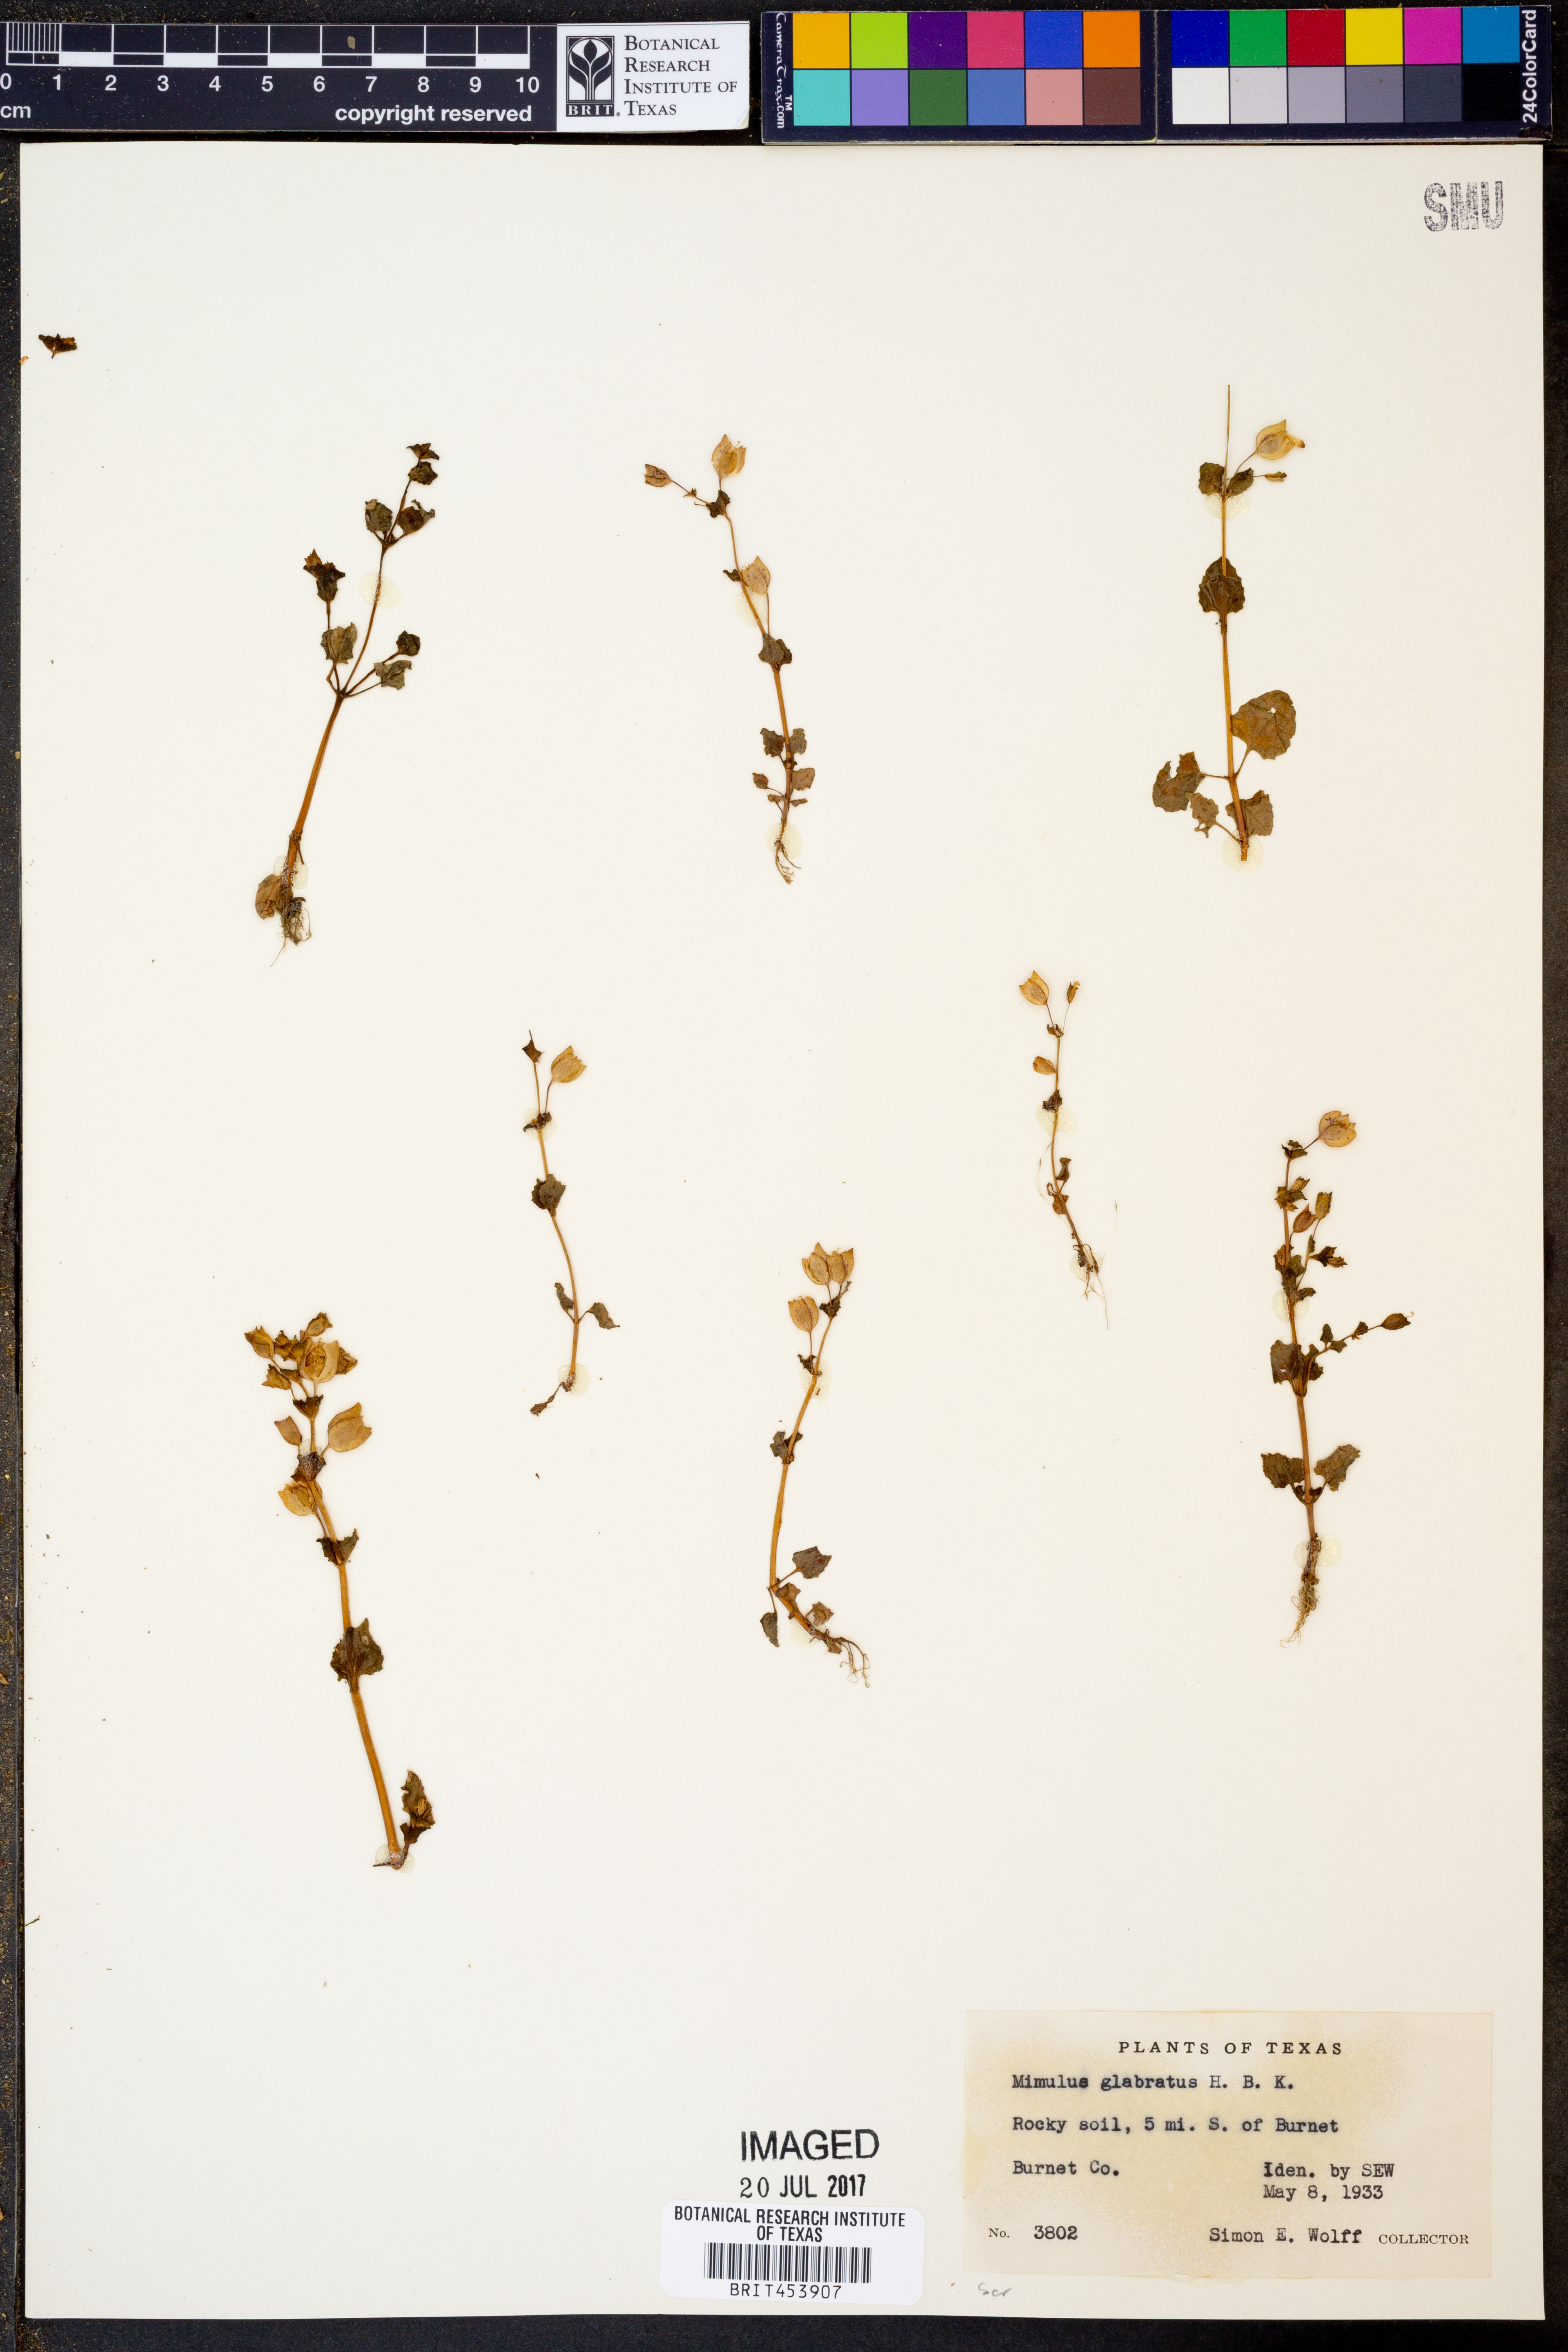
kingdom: Plantae
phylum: Tracheophyta
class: Magnoliopsida
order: Lamiales
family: Phrymaceae
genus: Erythranthe
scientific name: Erythranthe glabrata
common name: Round-leaved monkeyflower
